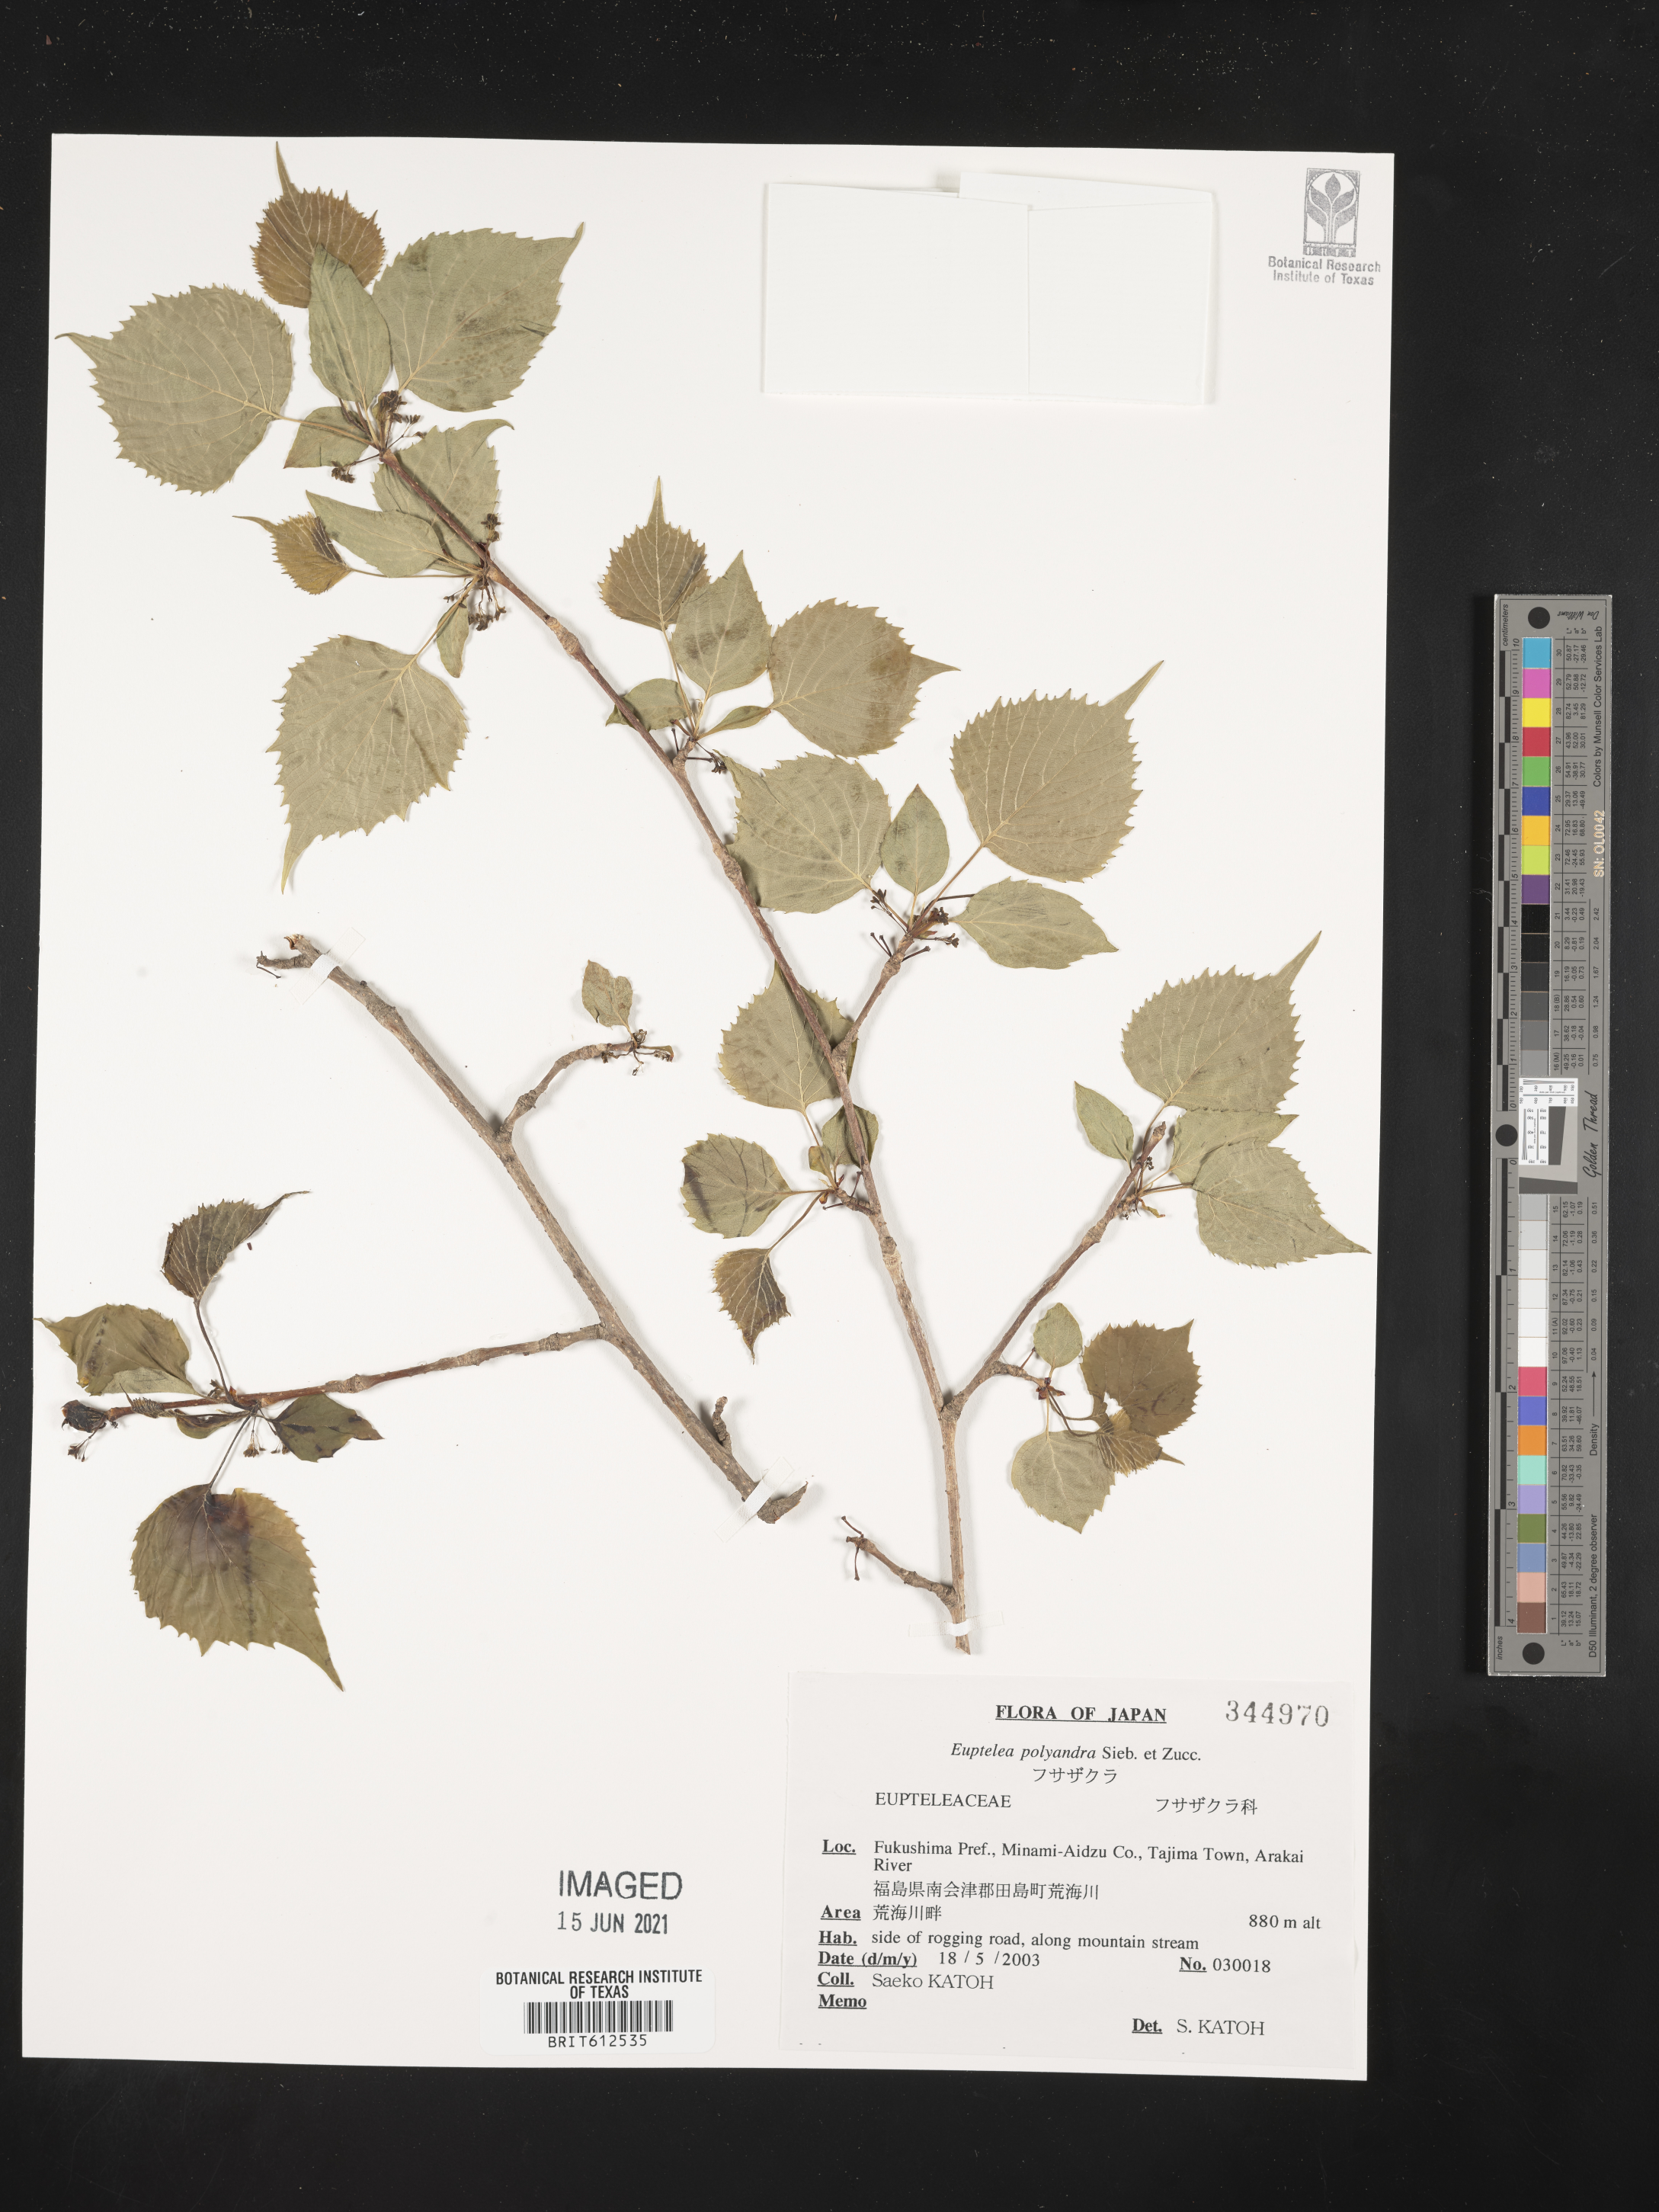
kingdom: Plantae
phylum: Tracheophyta
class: Magnoliopsida
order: Ranunculales
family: Eupteleaceae
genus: Euptelea
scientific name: Euptelea polyandra
